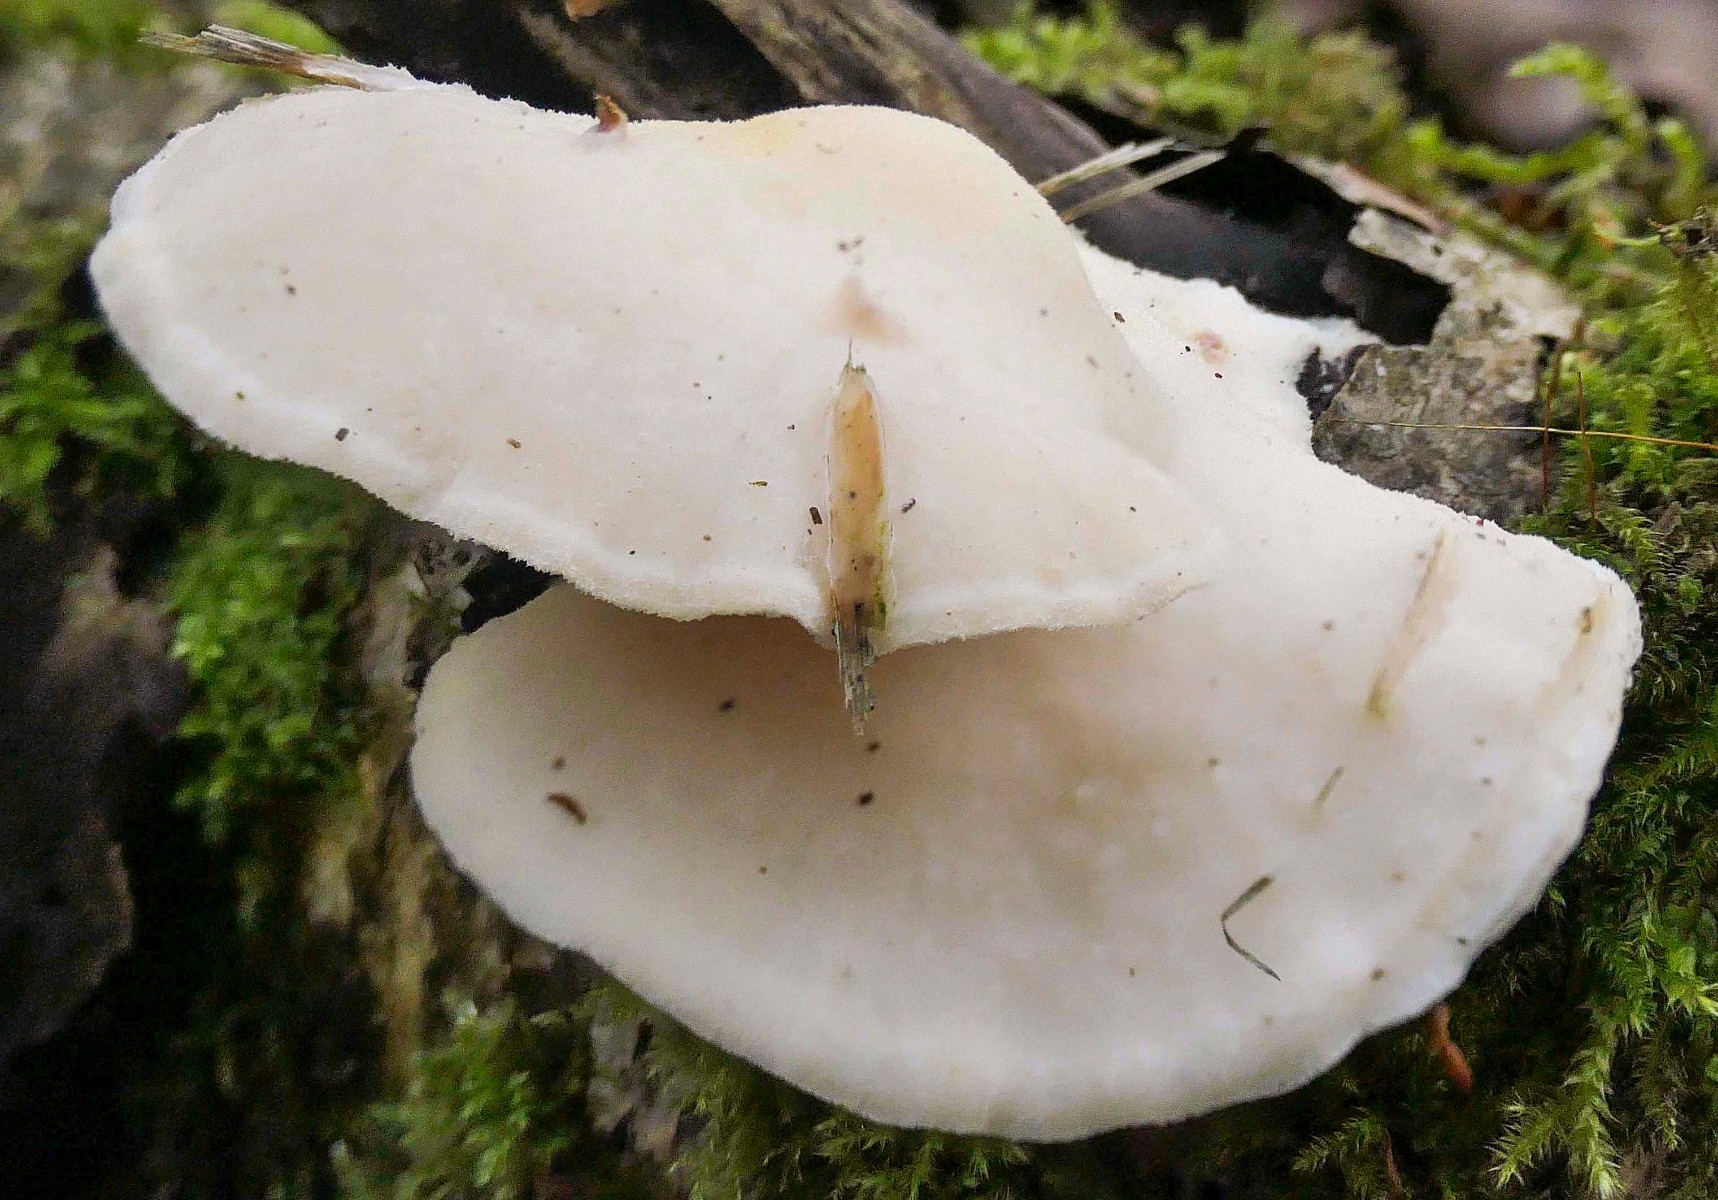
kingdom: Fungi
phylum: Basidiomycota
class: Agaricomycetes
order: Polyporales
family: Incrustoporiaceae
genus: Tyromyces
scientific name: Tyromyces chioneus
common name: stor blødporesvamp
